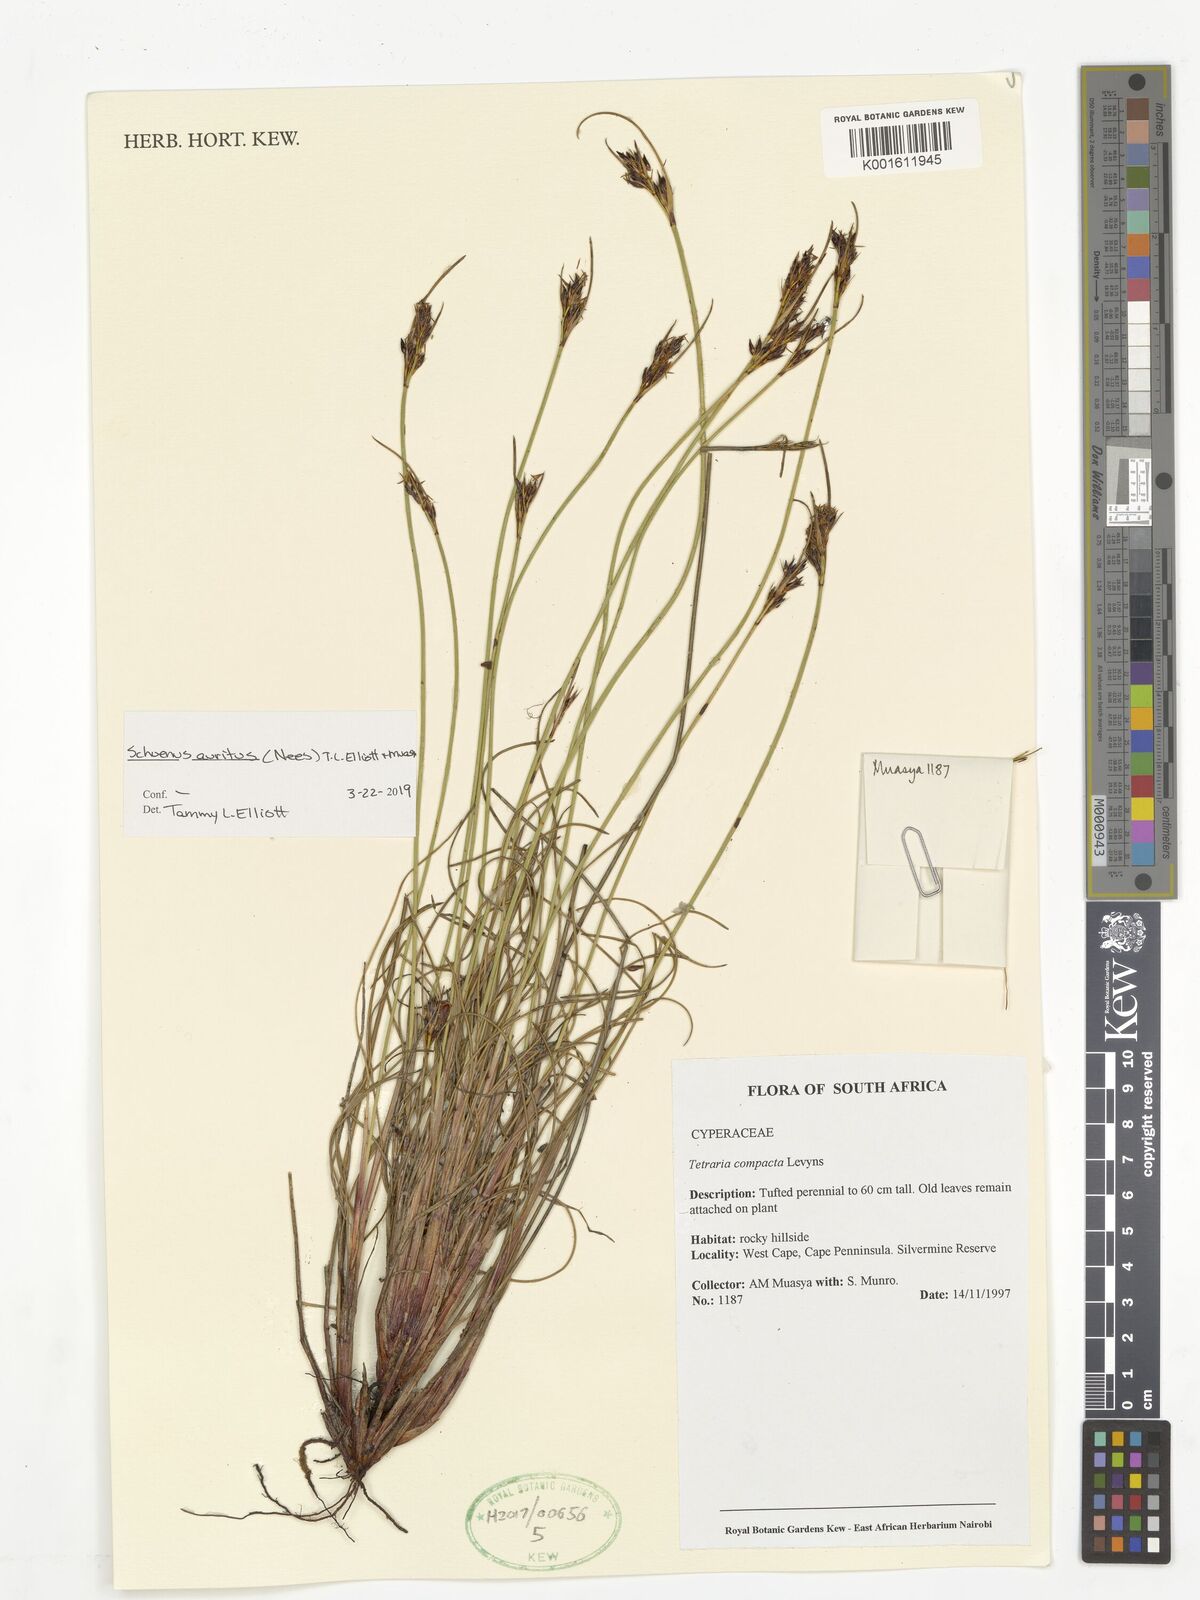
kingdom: Plantae
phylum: Tracheophyta
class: Liliopsida
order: Poales
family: Cyperaceae
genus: Schoenus
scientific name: Schoenus auritus
